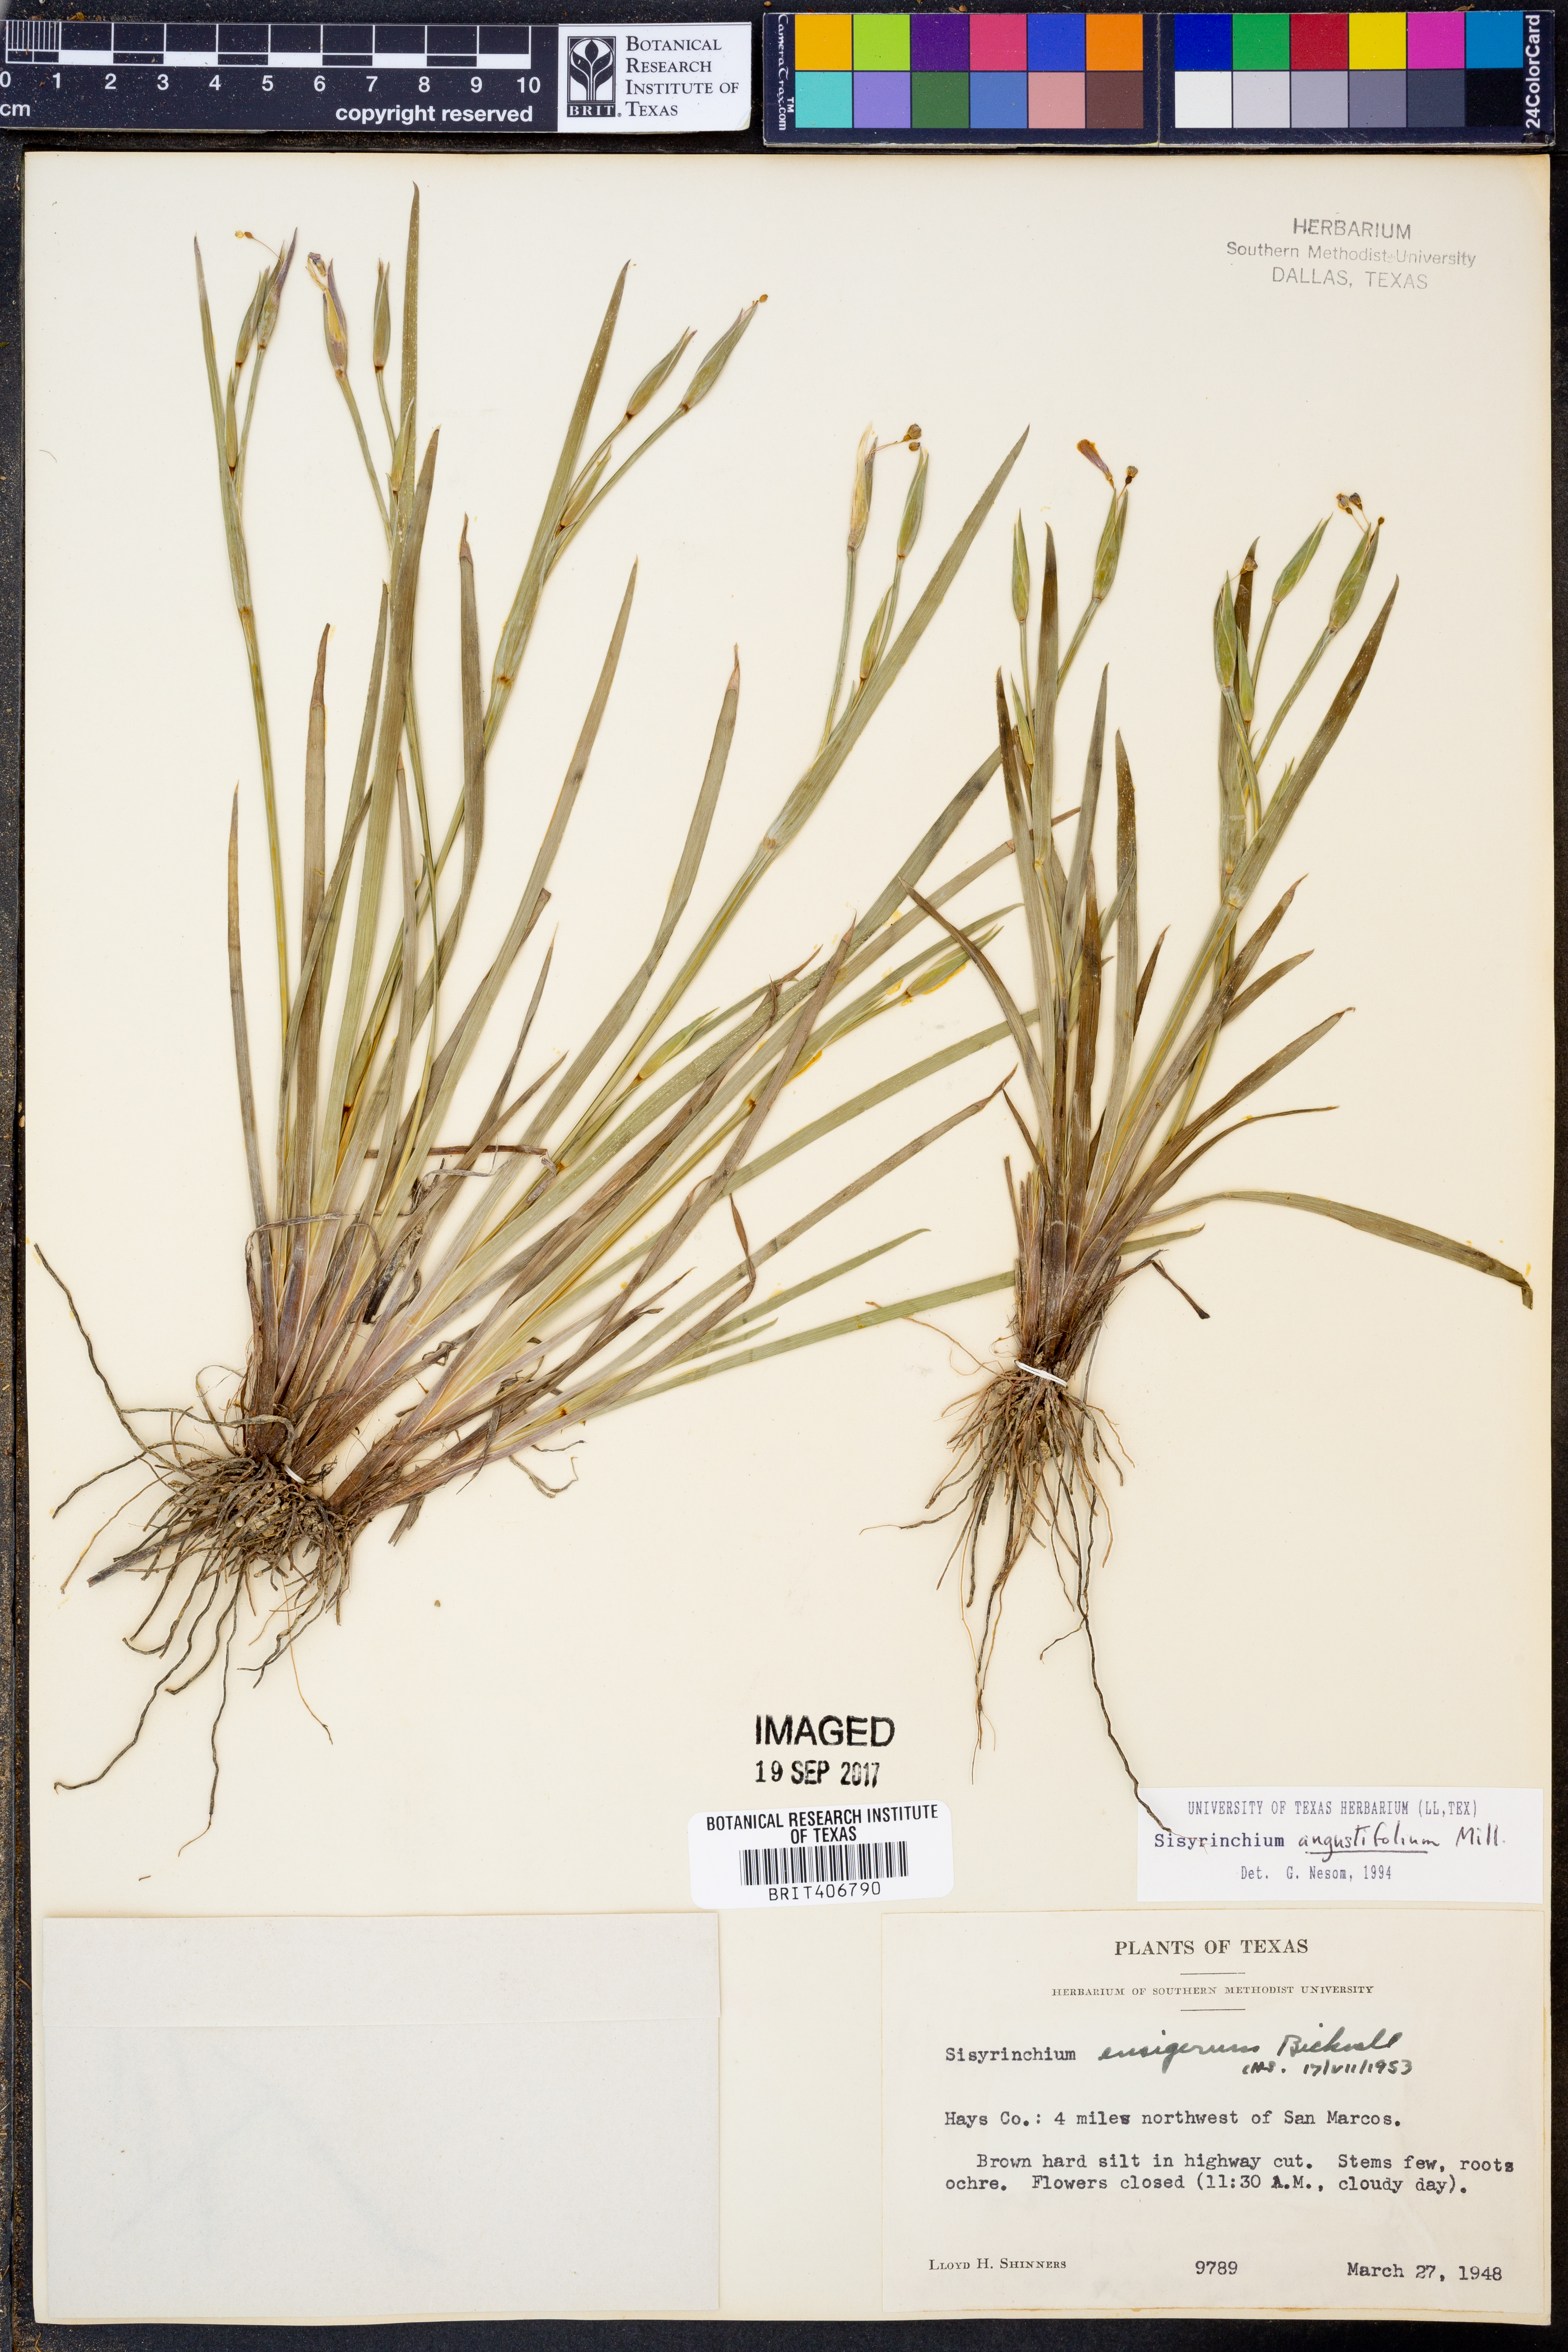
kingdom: Plantae
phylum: Tracheophyta
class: Liliopsida
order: Asparagales
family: Iridaceae
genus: Sisyrinchium
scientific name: Sisyrinchium angustifolium
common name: Narrow-leaf blue-eyed-grass
